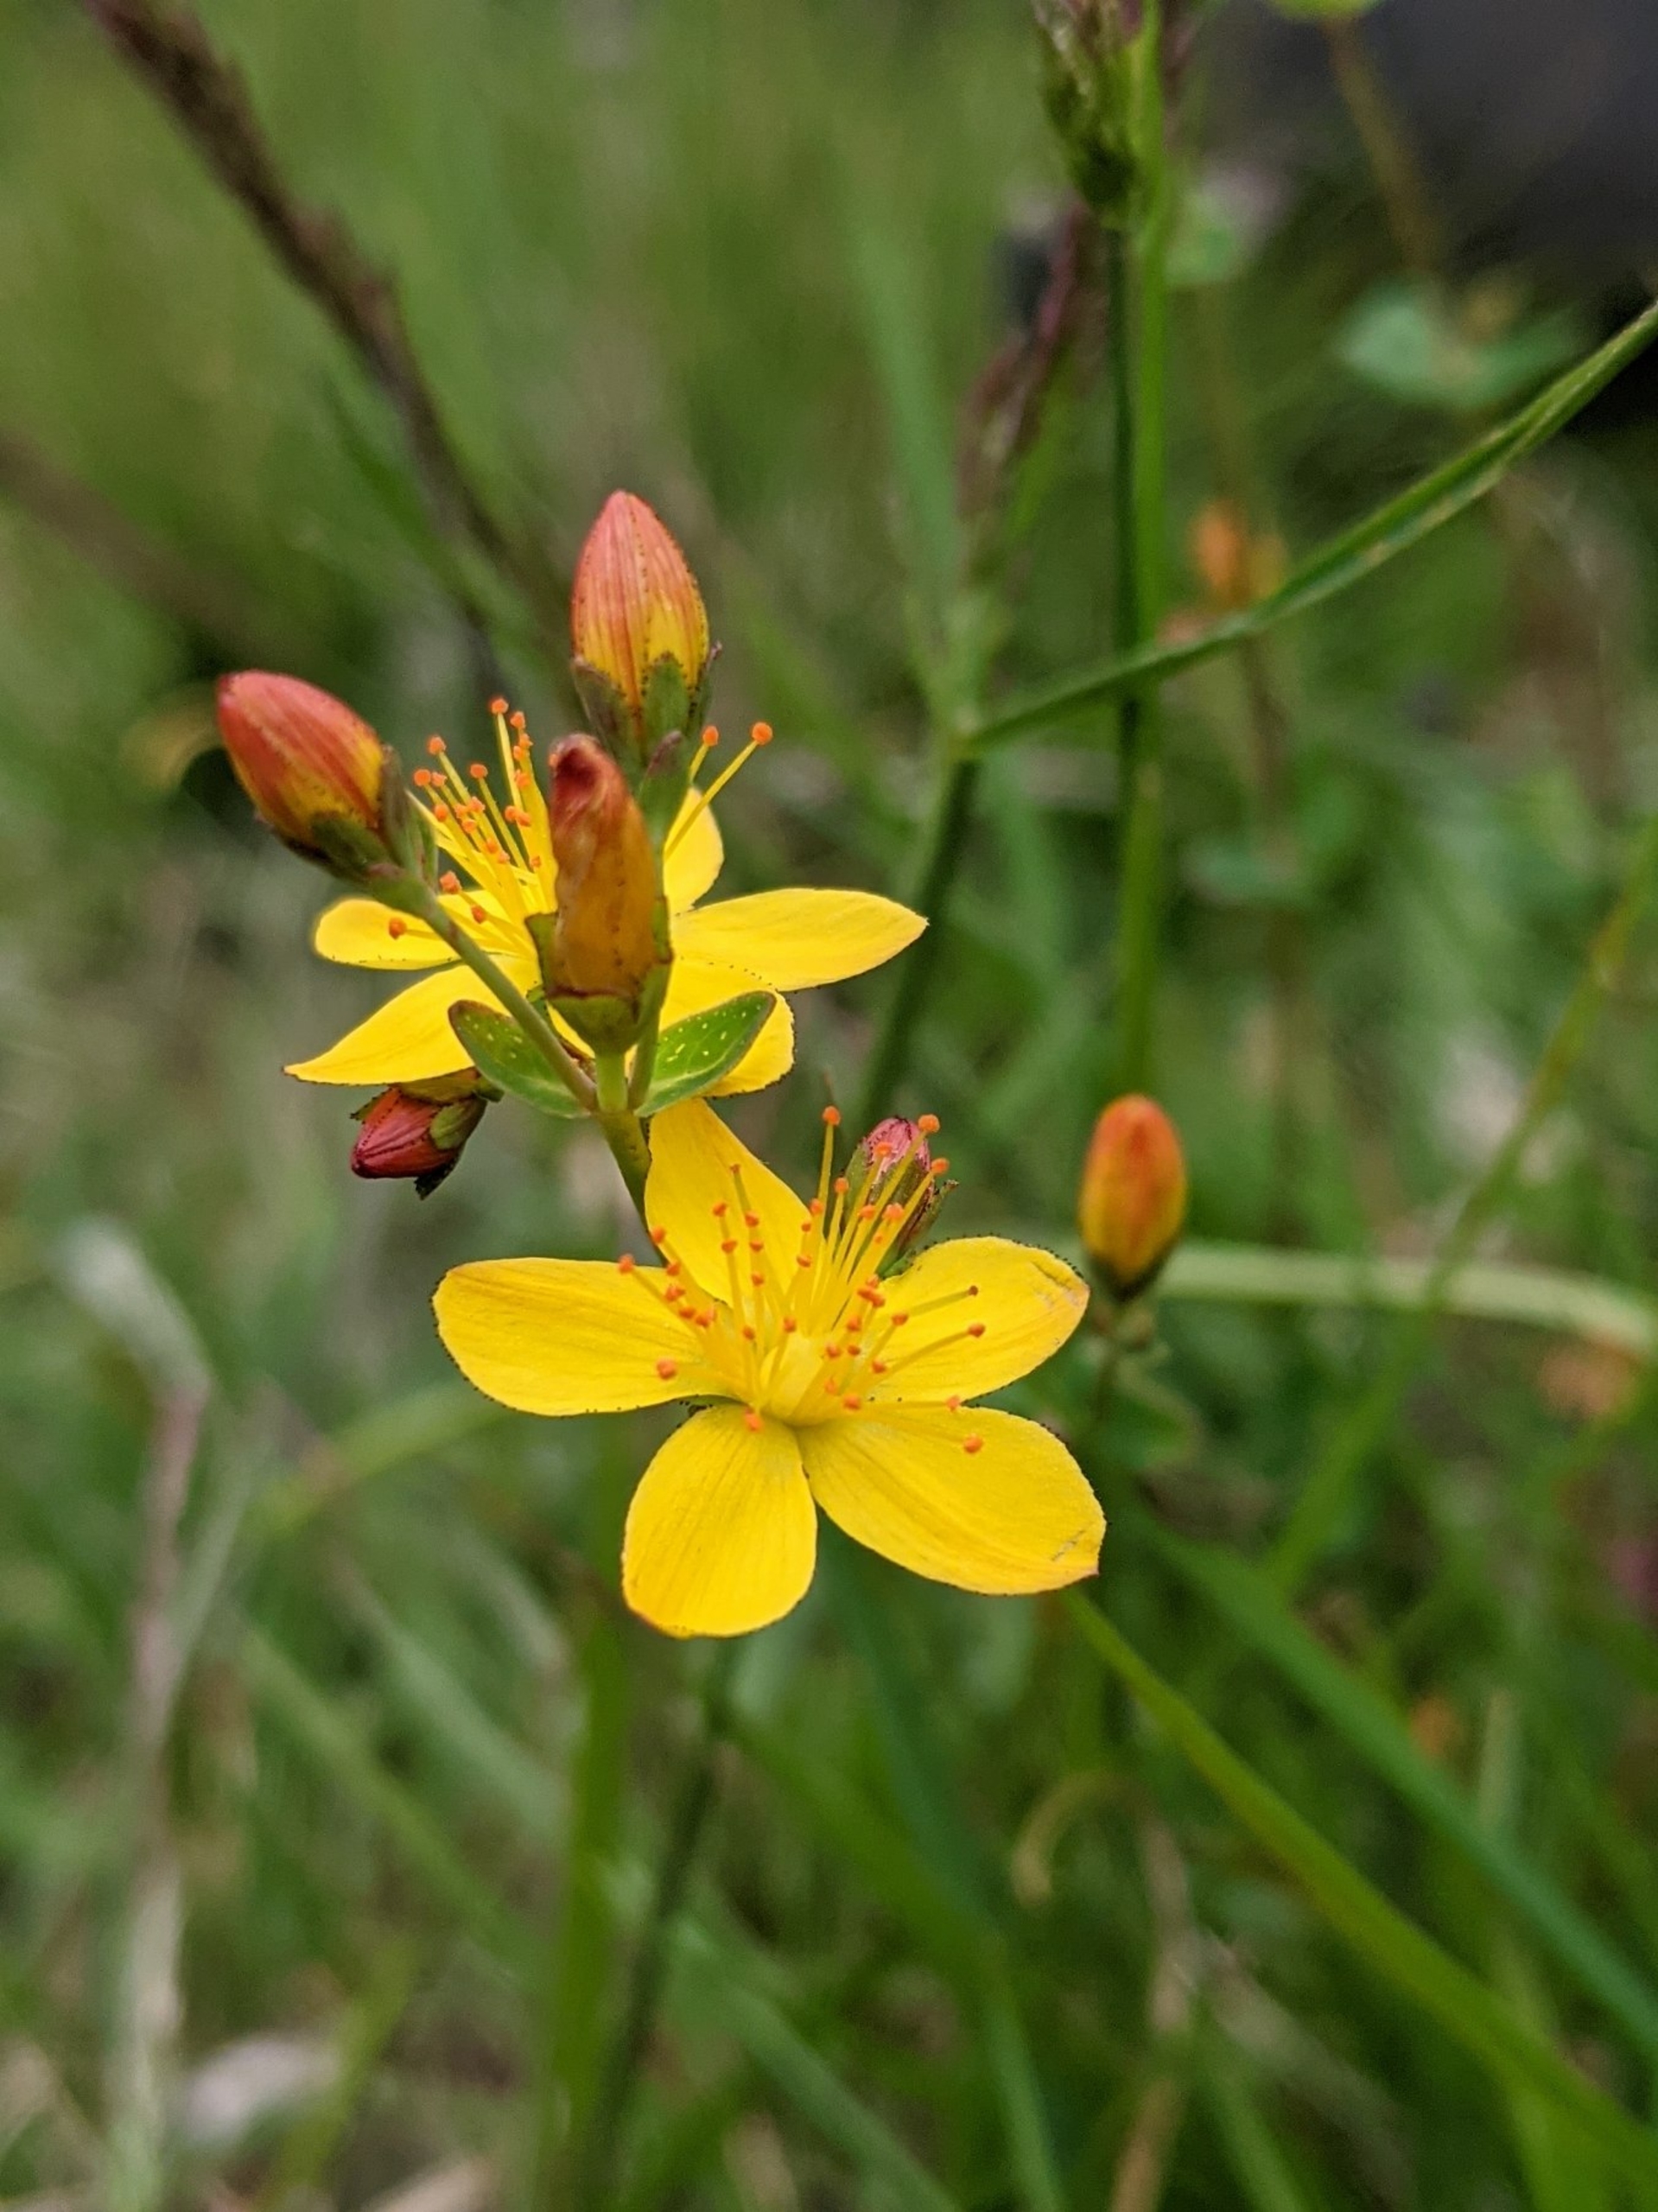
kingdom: Plantae
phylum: Tracheophyta
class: Magnoliopsida
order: Malpighiales
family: Hypericaceae
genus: Hypericum
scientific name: Hypericum pulchrum
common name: Smuk perikon
